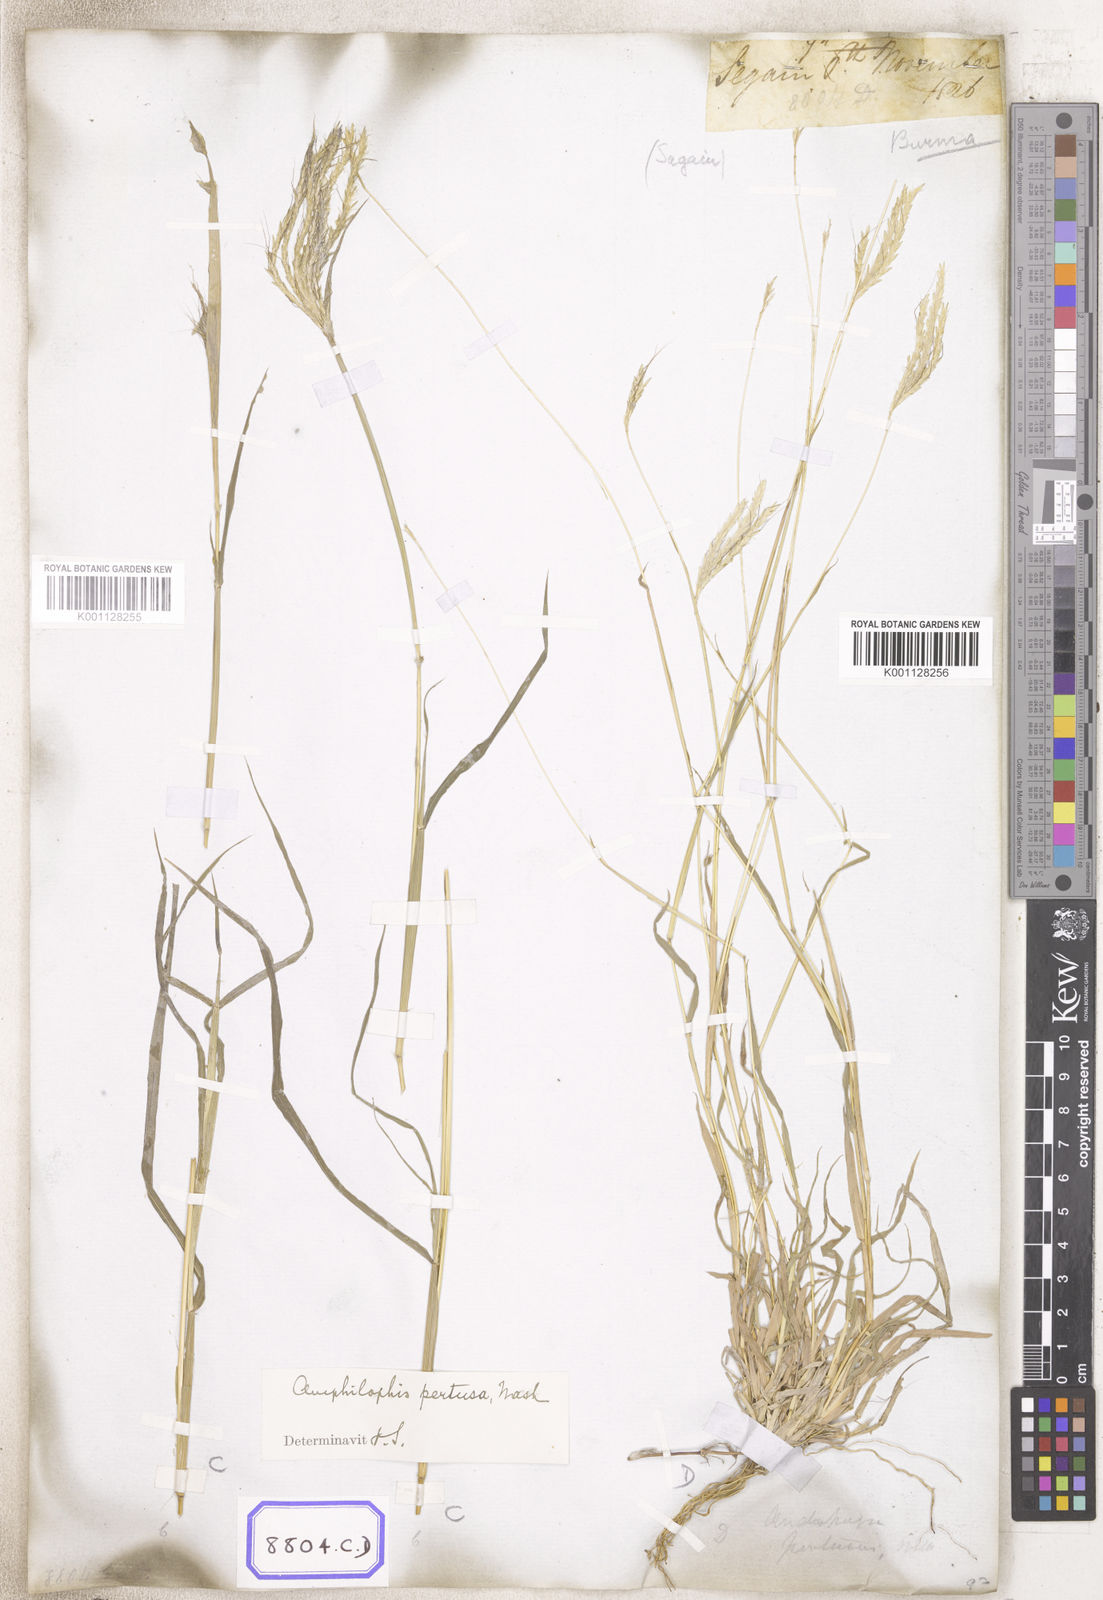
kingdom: Plantae
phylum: Tracheophyta
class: Liliopsida
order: Poales
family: Poaceae
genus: Andropogon
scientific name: Andropogon
